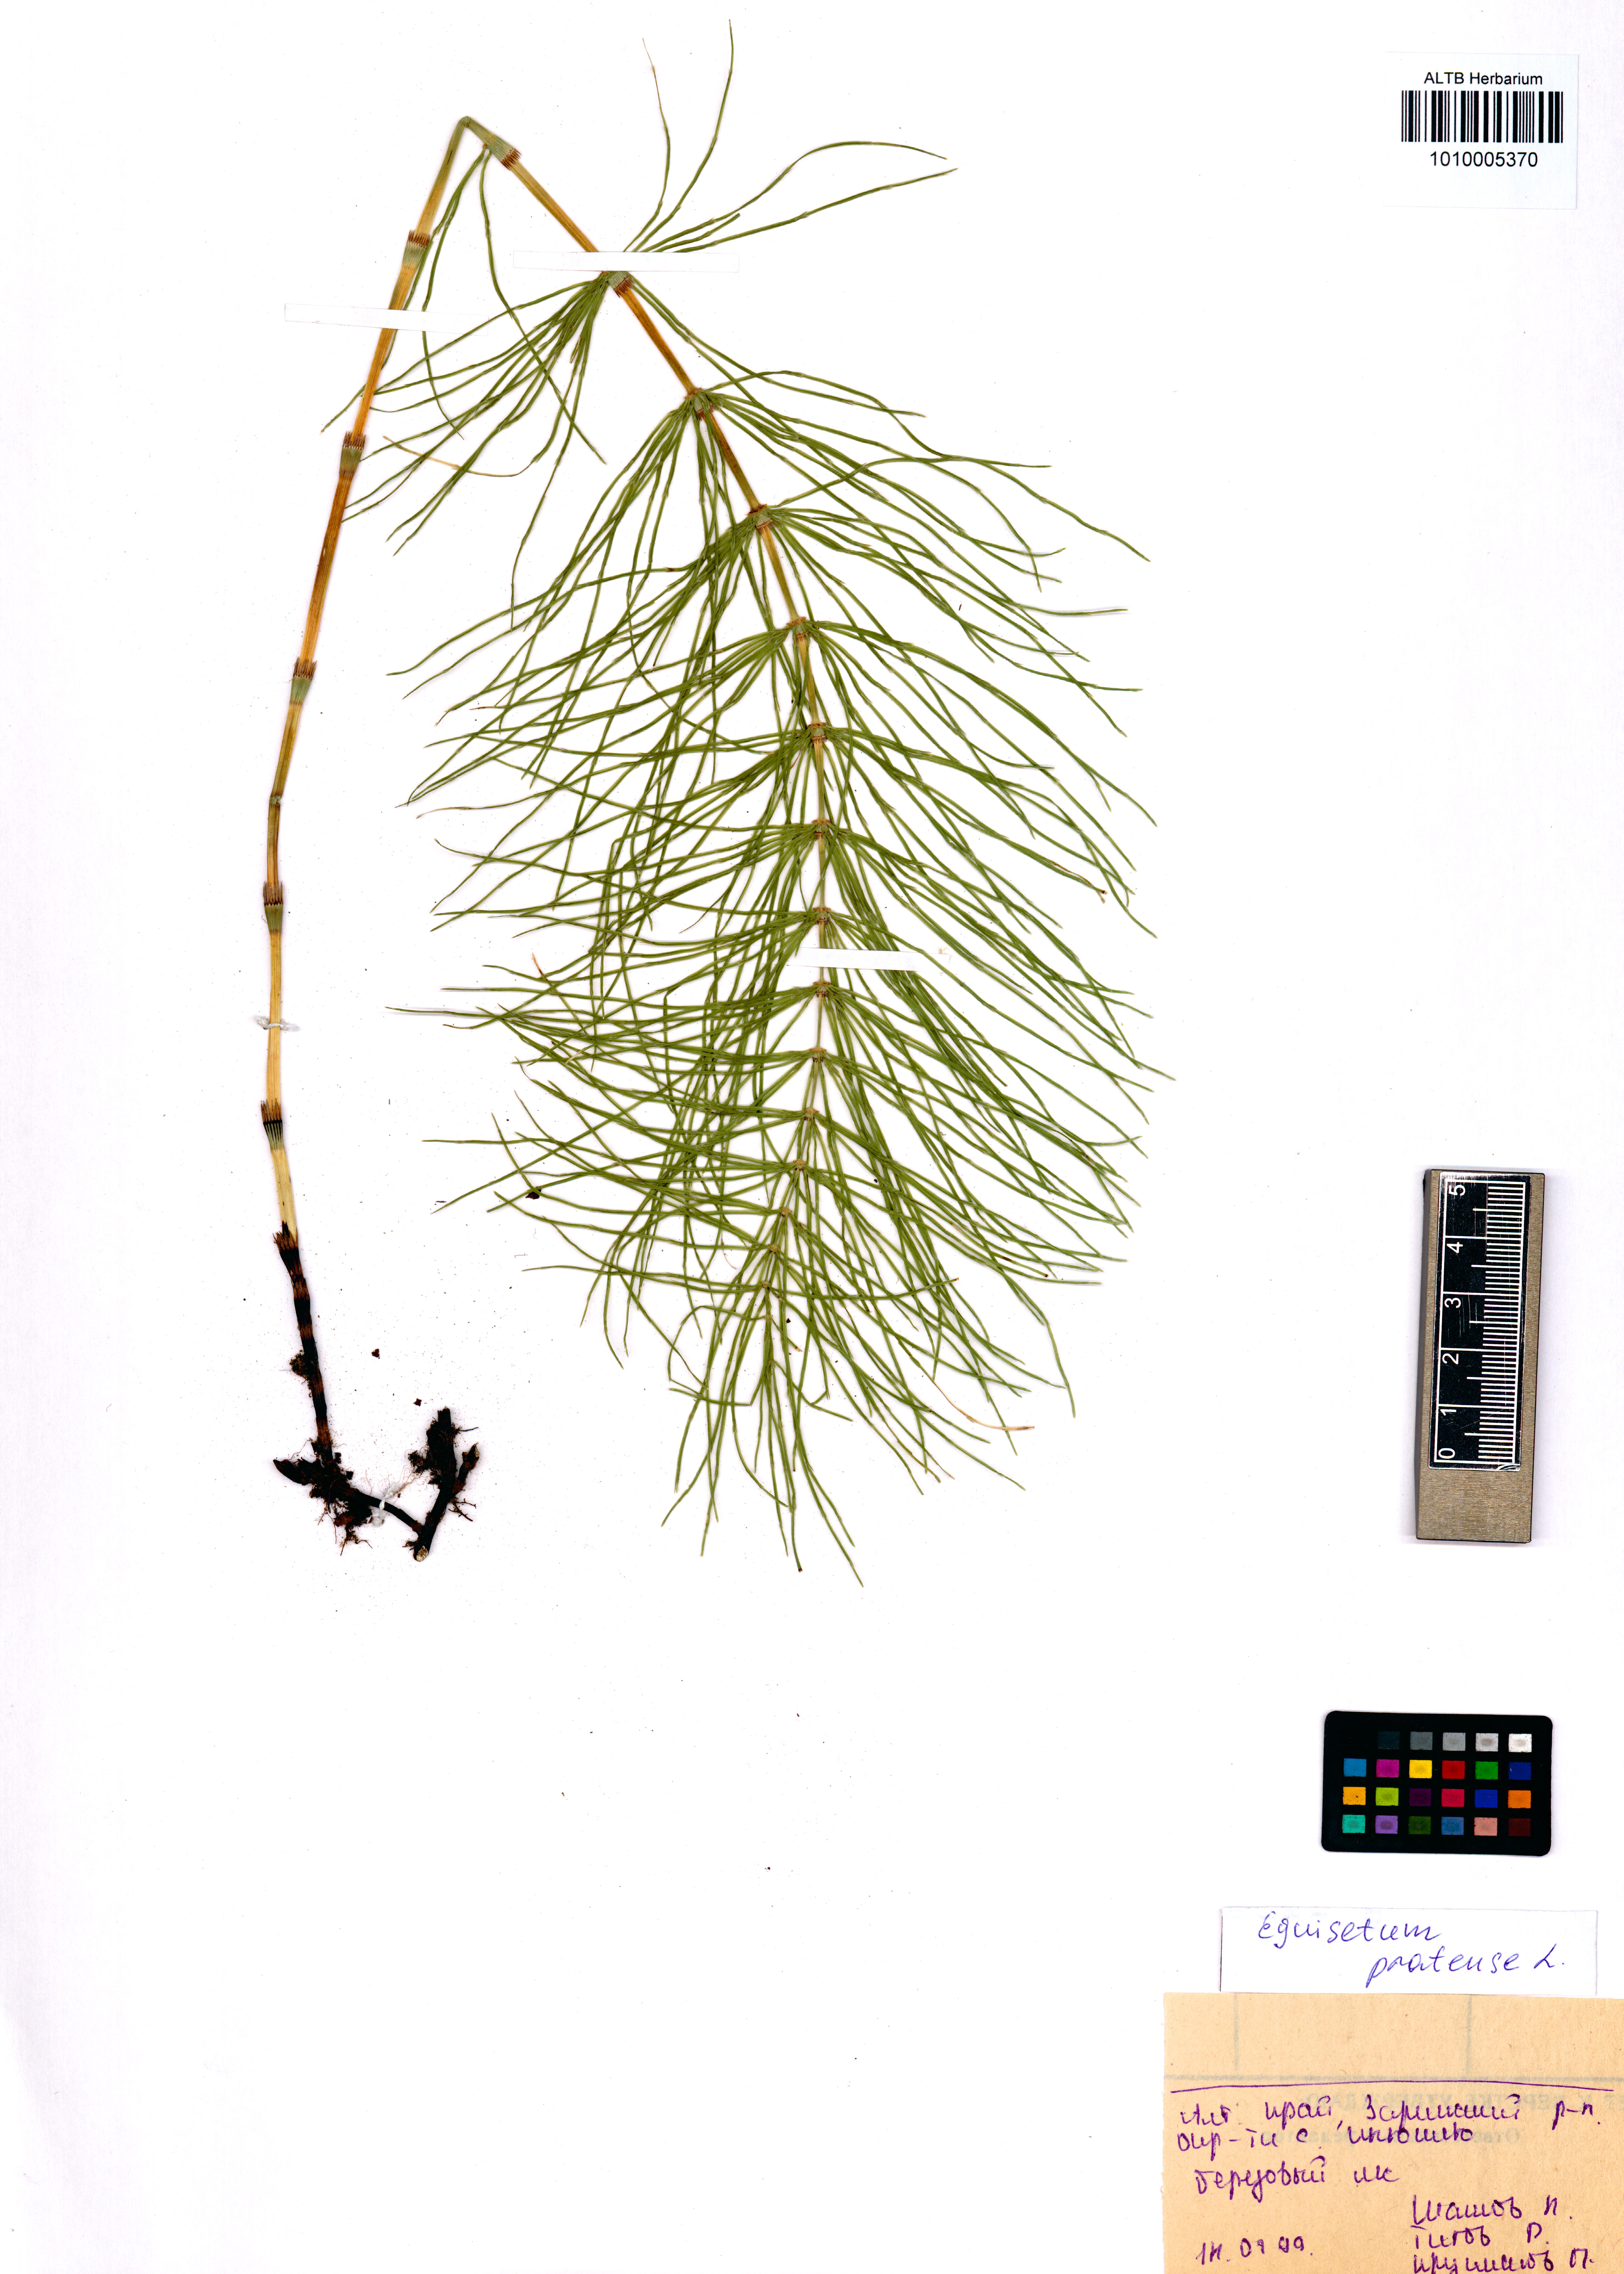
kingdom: Plantae
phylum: Tracheophyta
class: Polypodiopsida
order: Equisetales
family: Equisetaceae
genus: Equisetum
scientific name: Equisetum pratense
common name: Meadow horsetail
